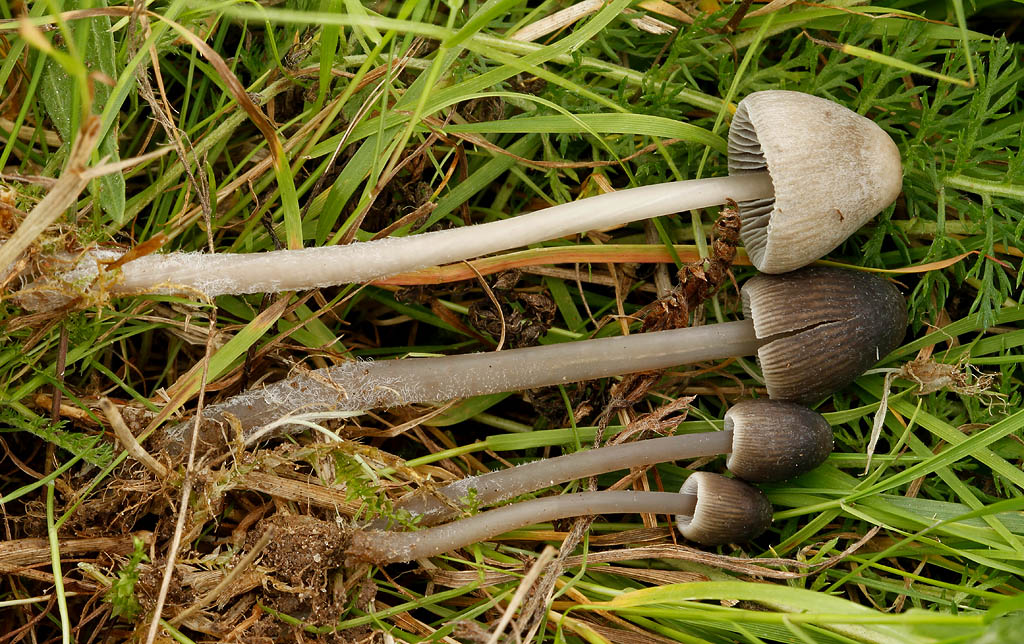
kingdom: Fungi
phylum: Basidiomycota
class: Agaricomycetes
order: Agaricales
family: Mycenaceae
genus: Mycena
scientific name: Mycena aetites
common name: plæne-huesvamp
